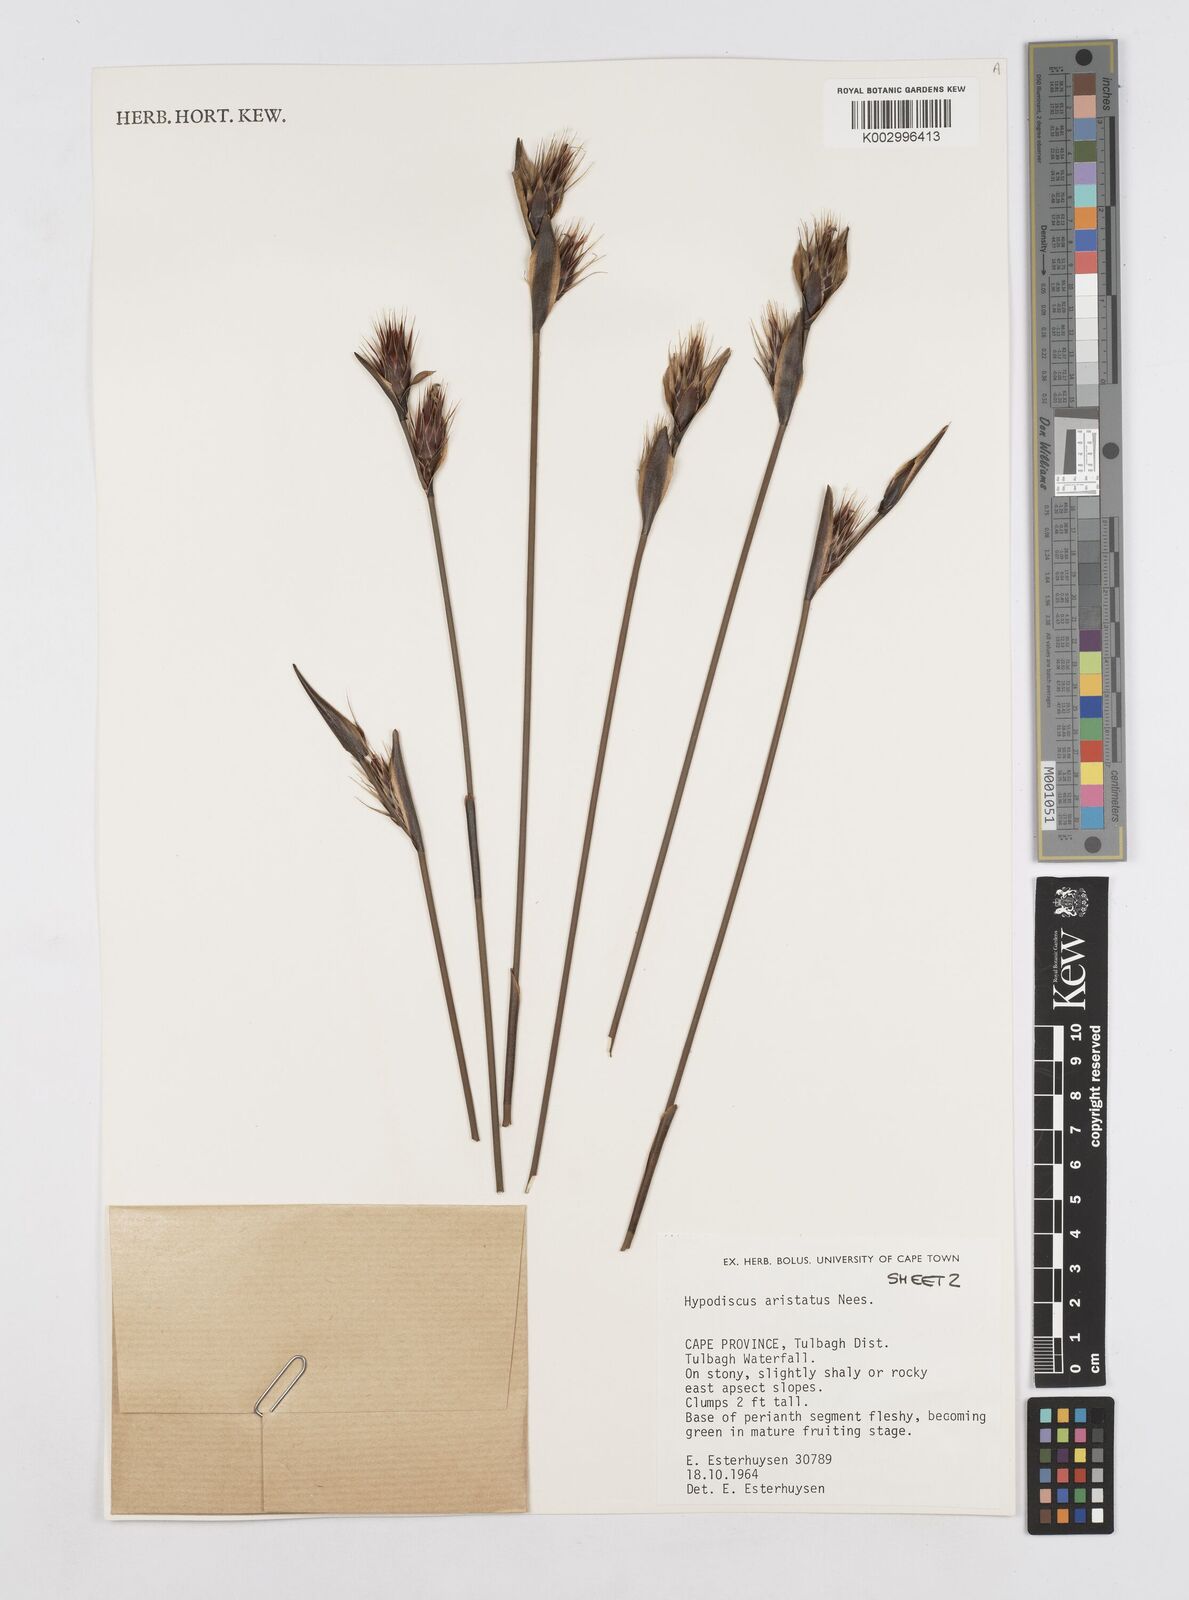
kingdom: Plantae
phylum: Tracheophyta
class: Liliopsida
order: Poales
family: Restionaceae
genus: Hypodiscus
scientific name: Hypodiscus aristatus
